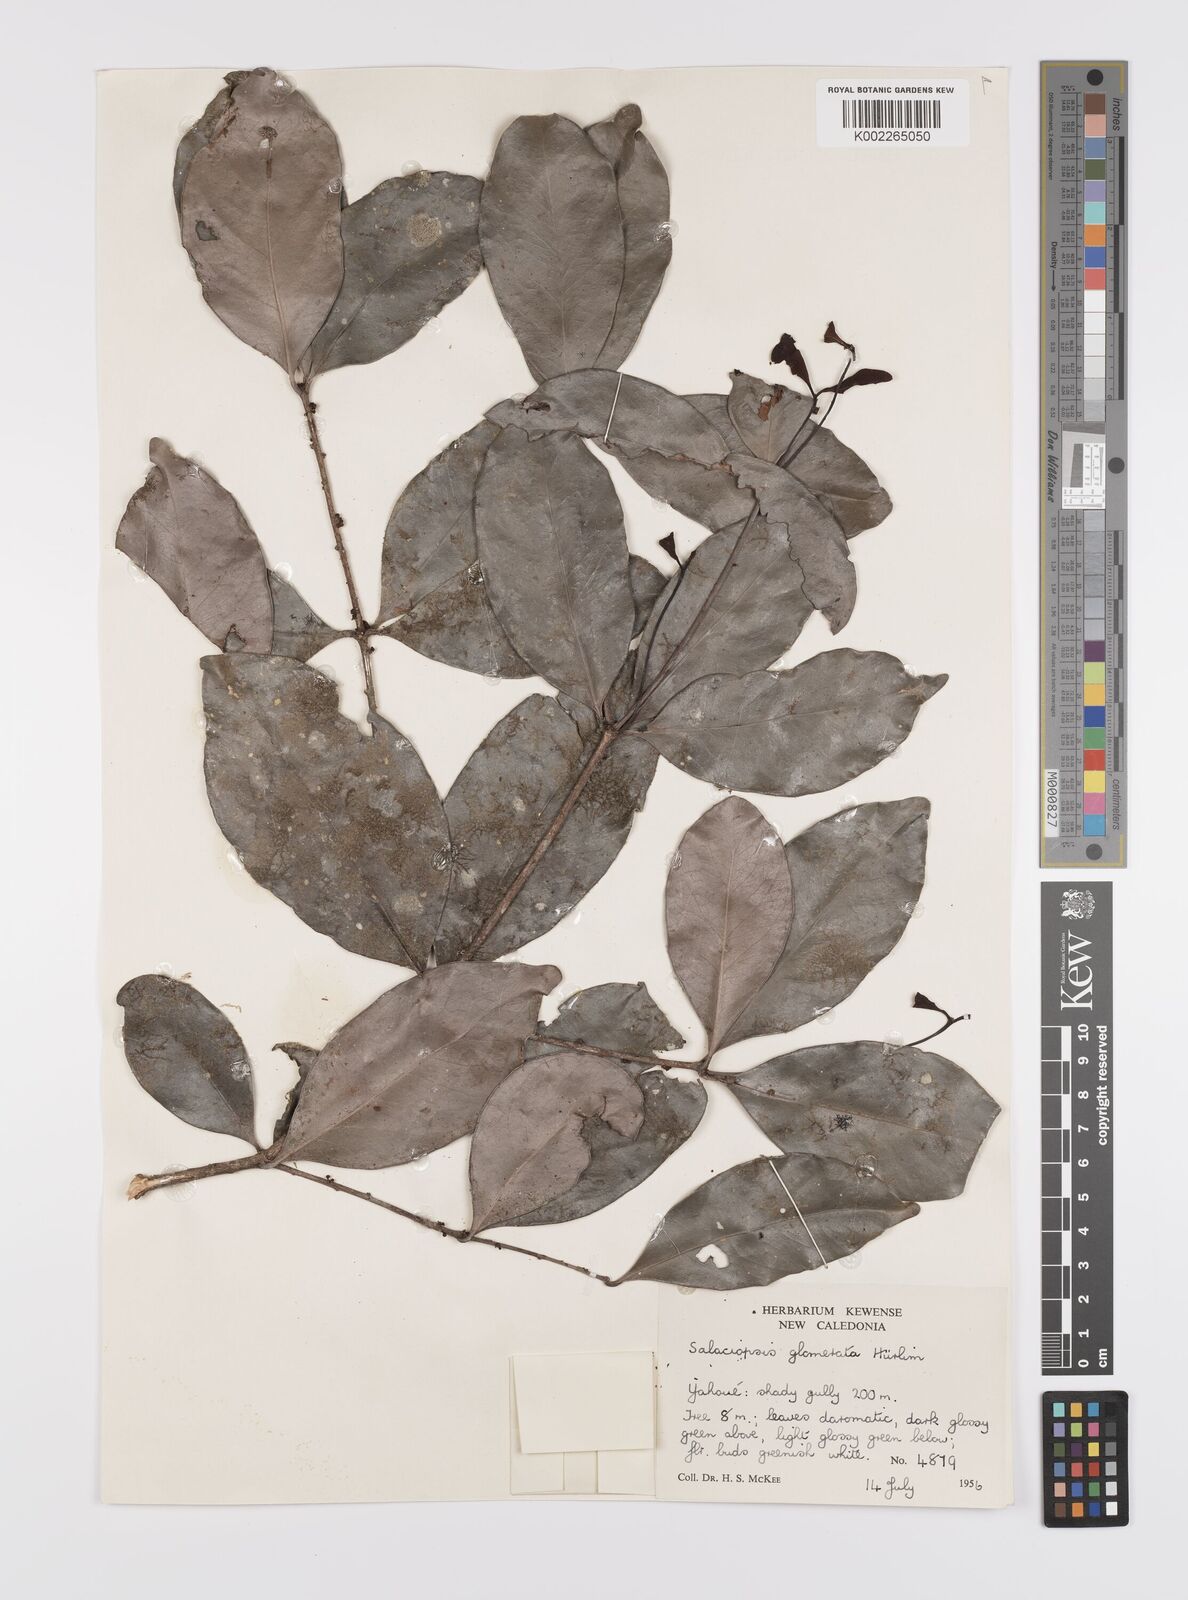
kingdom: Plantae
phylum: Tracheophyta
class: Magnoliopsida
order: Celastrales
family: Celastraceae
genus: Salaciopsis
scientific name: Salaciopsis glomerata
